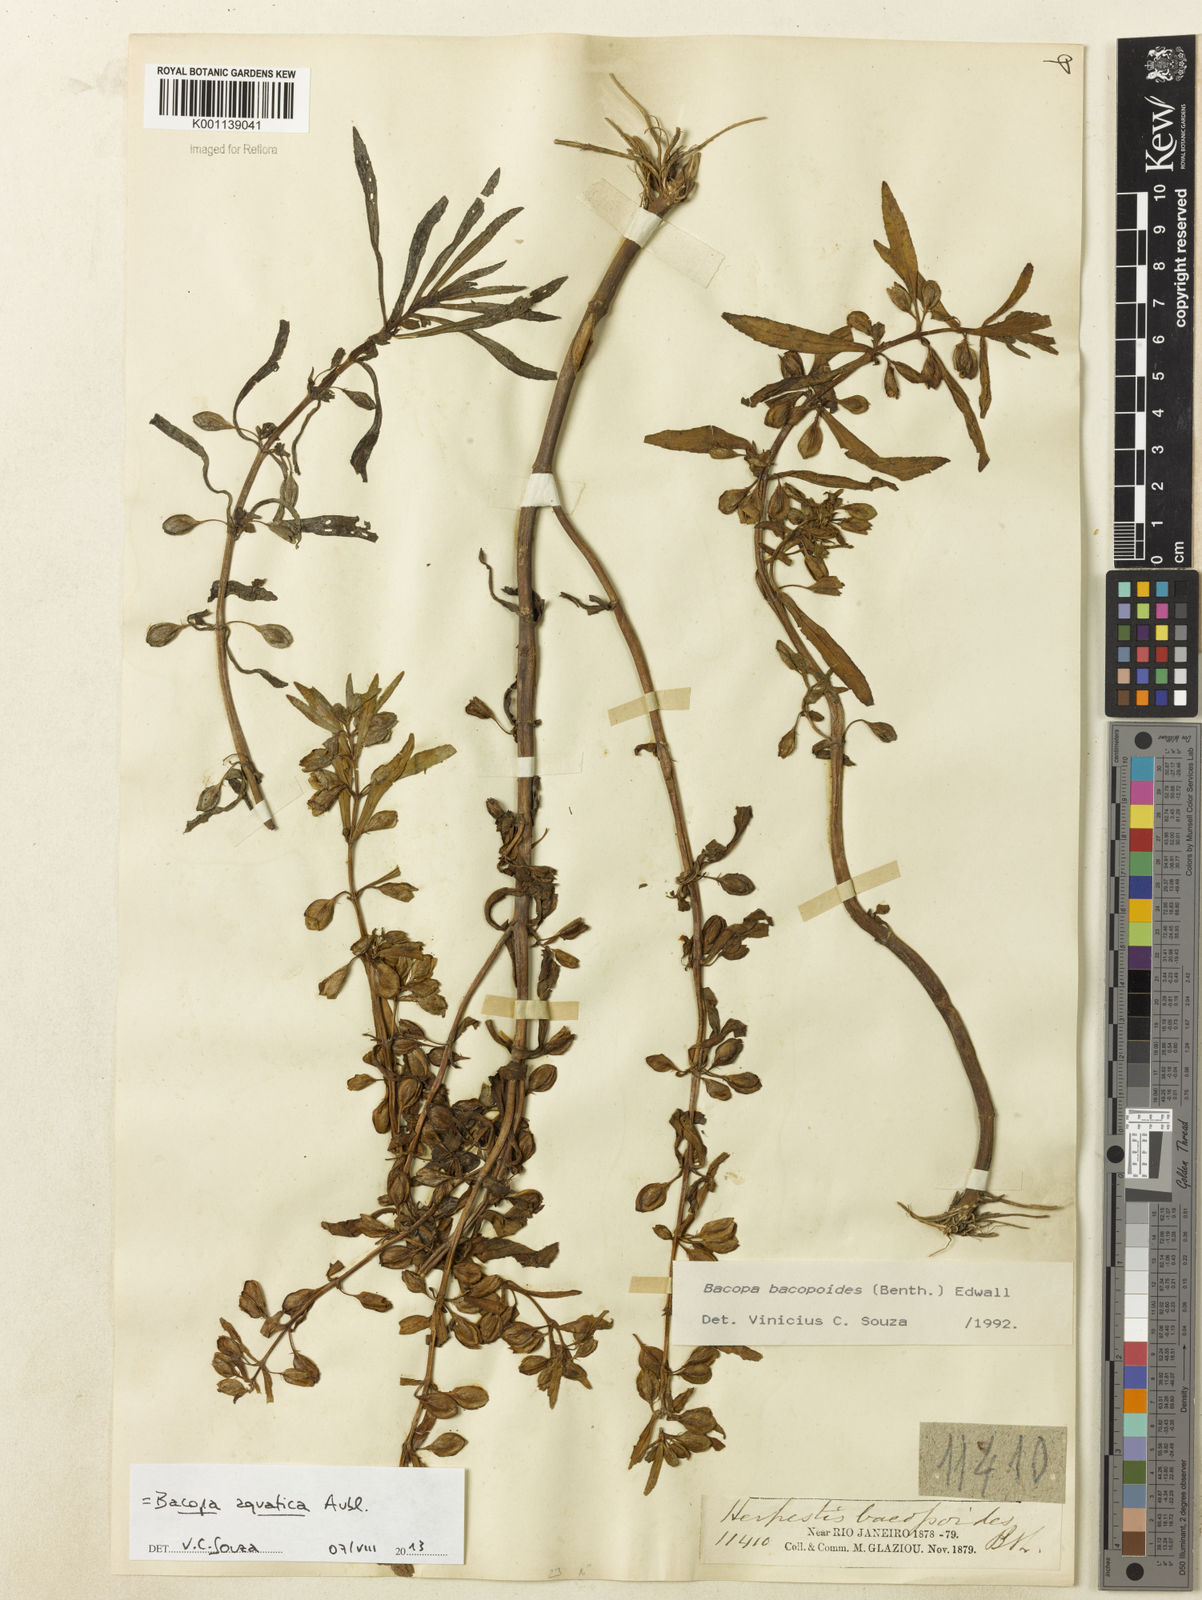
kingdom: Plantae
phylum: Tracheophyta
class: Magnoliopsida
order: Lamiales
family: Plantaginaceae
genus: Bacopa
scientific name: Bacopa aquatica
